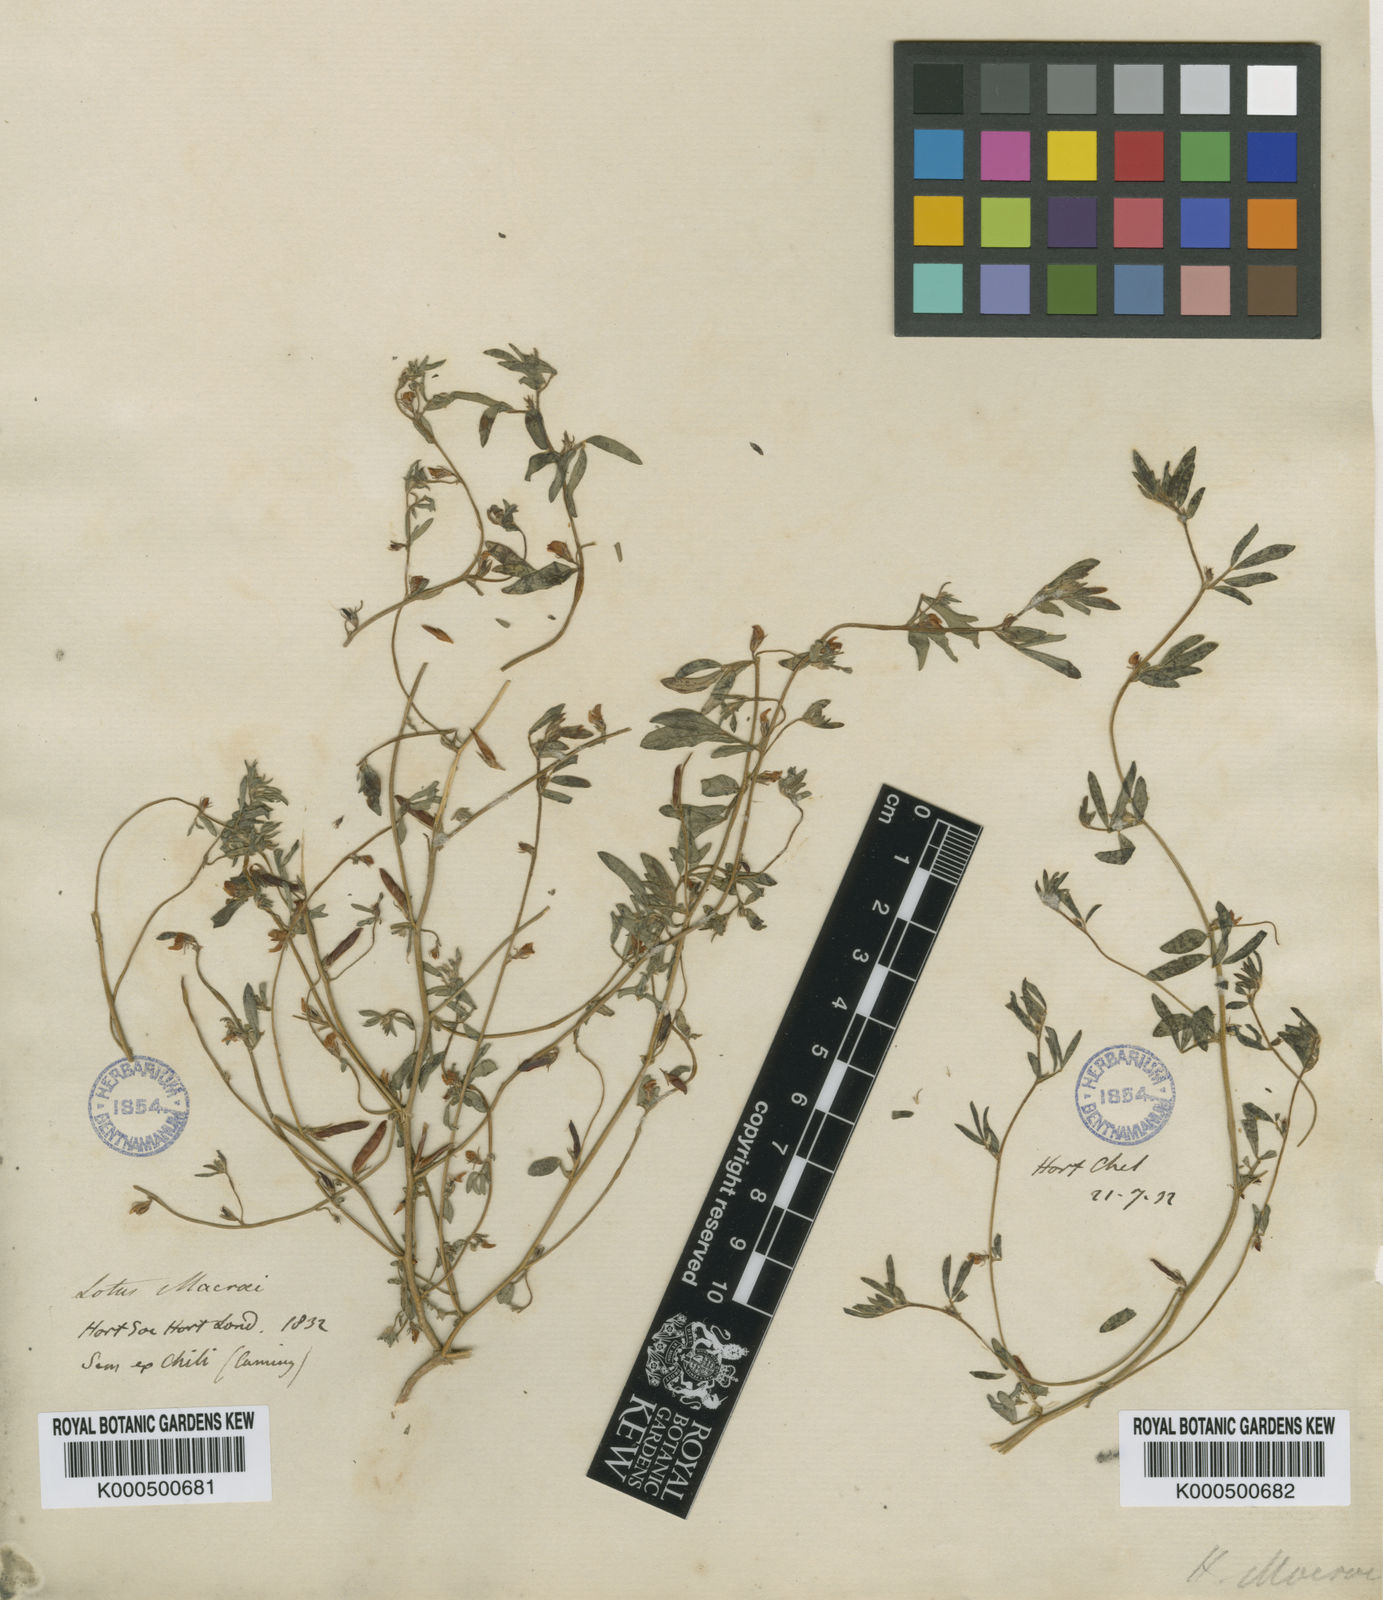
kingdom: Plantae
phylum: Tracheophyta
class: Magnoliopsida
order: Fabales
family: Fabaceae
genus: Acmispon
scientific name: Acmispon subpinnatus
